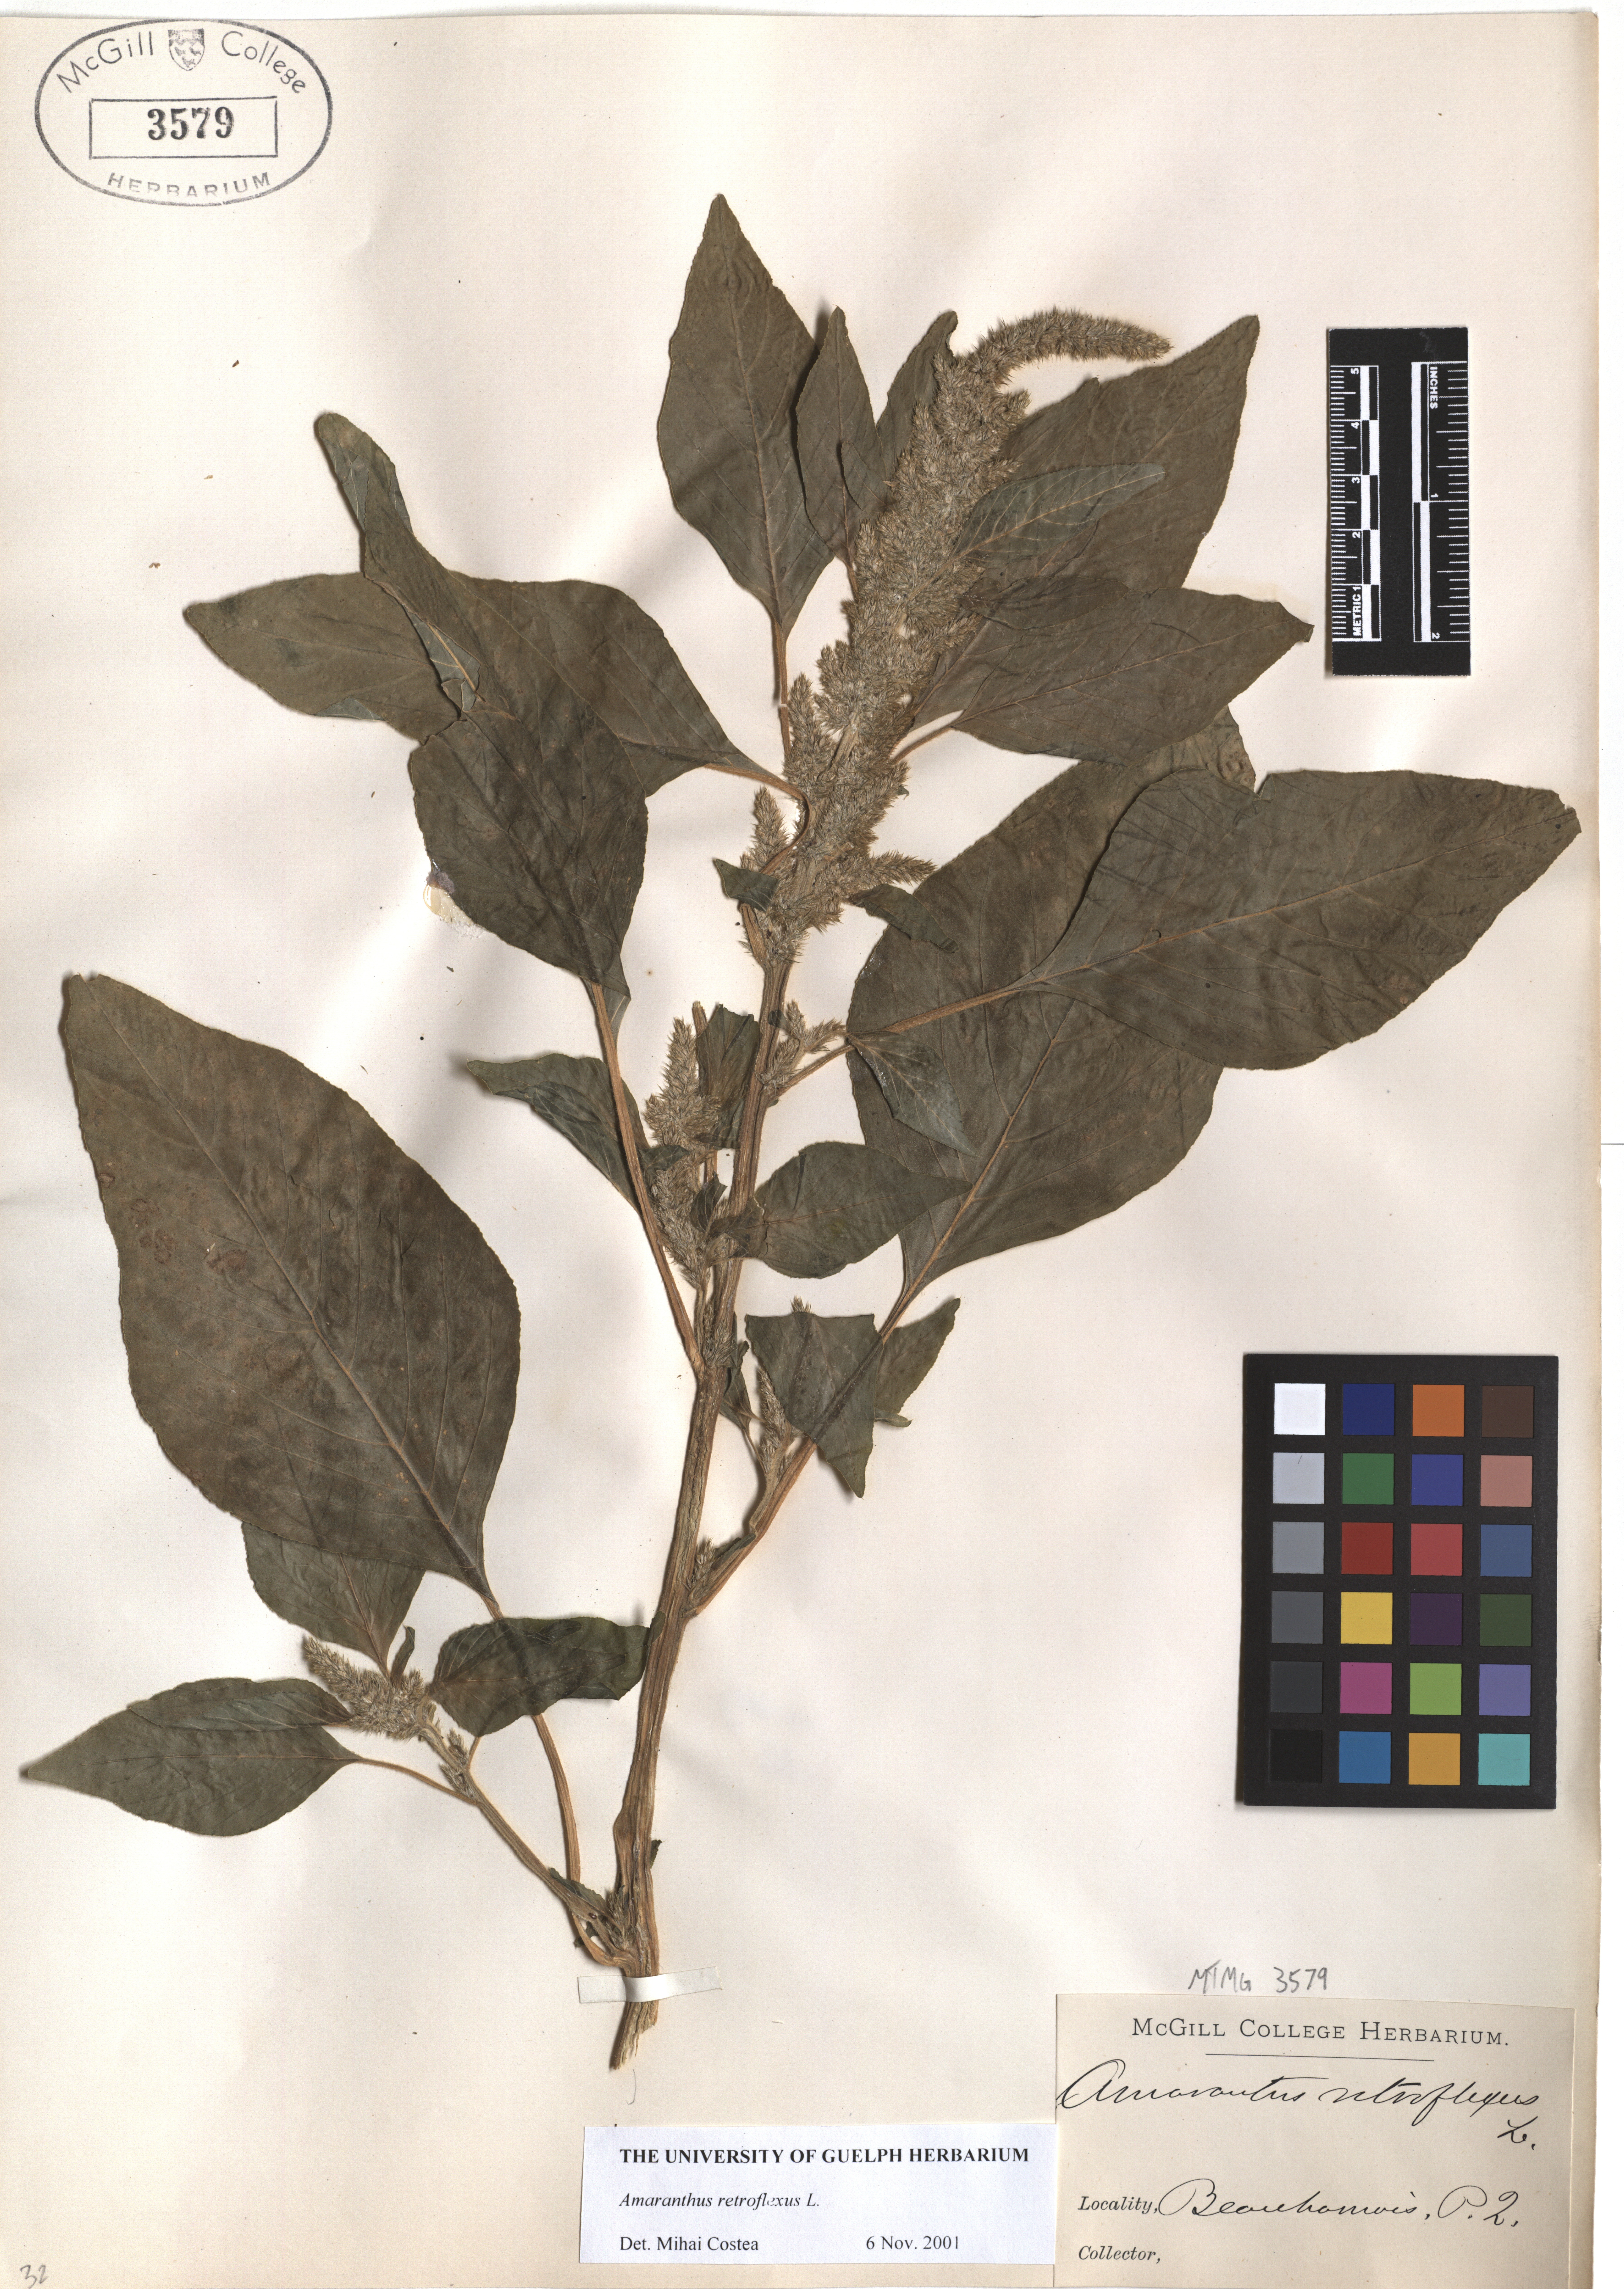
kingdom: Plantae
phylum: Tracheophyta
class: Magnoliopsida
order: Caryophyllales
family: Amaranthaceae
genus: Amaranthus
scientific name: Amaranthus retroflexus
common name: Redroot amaranth
